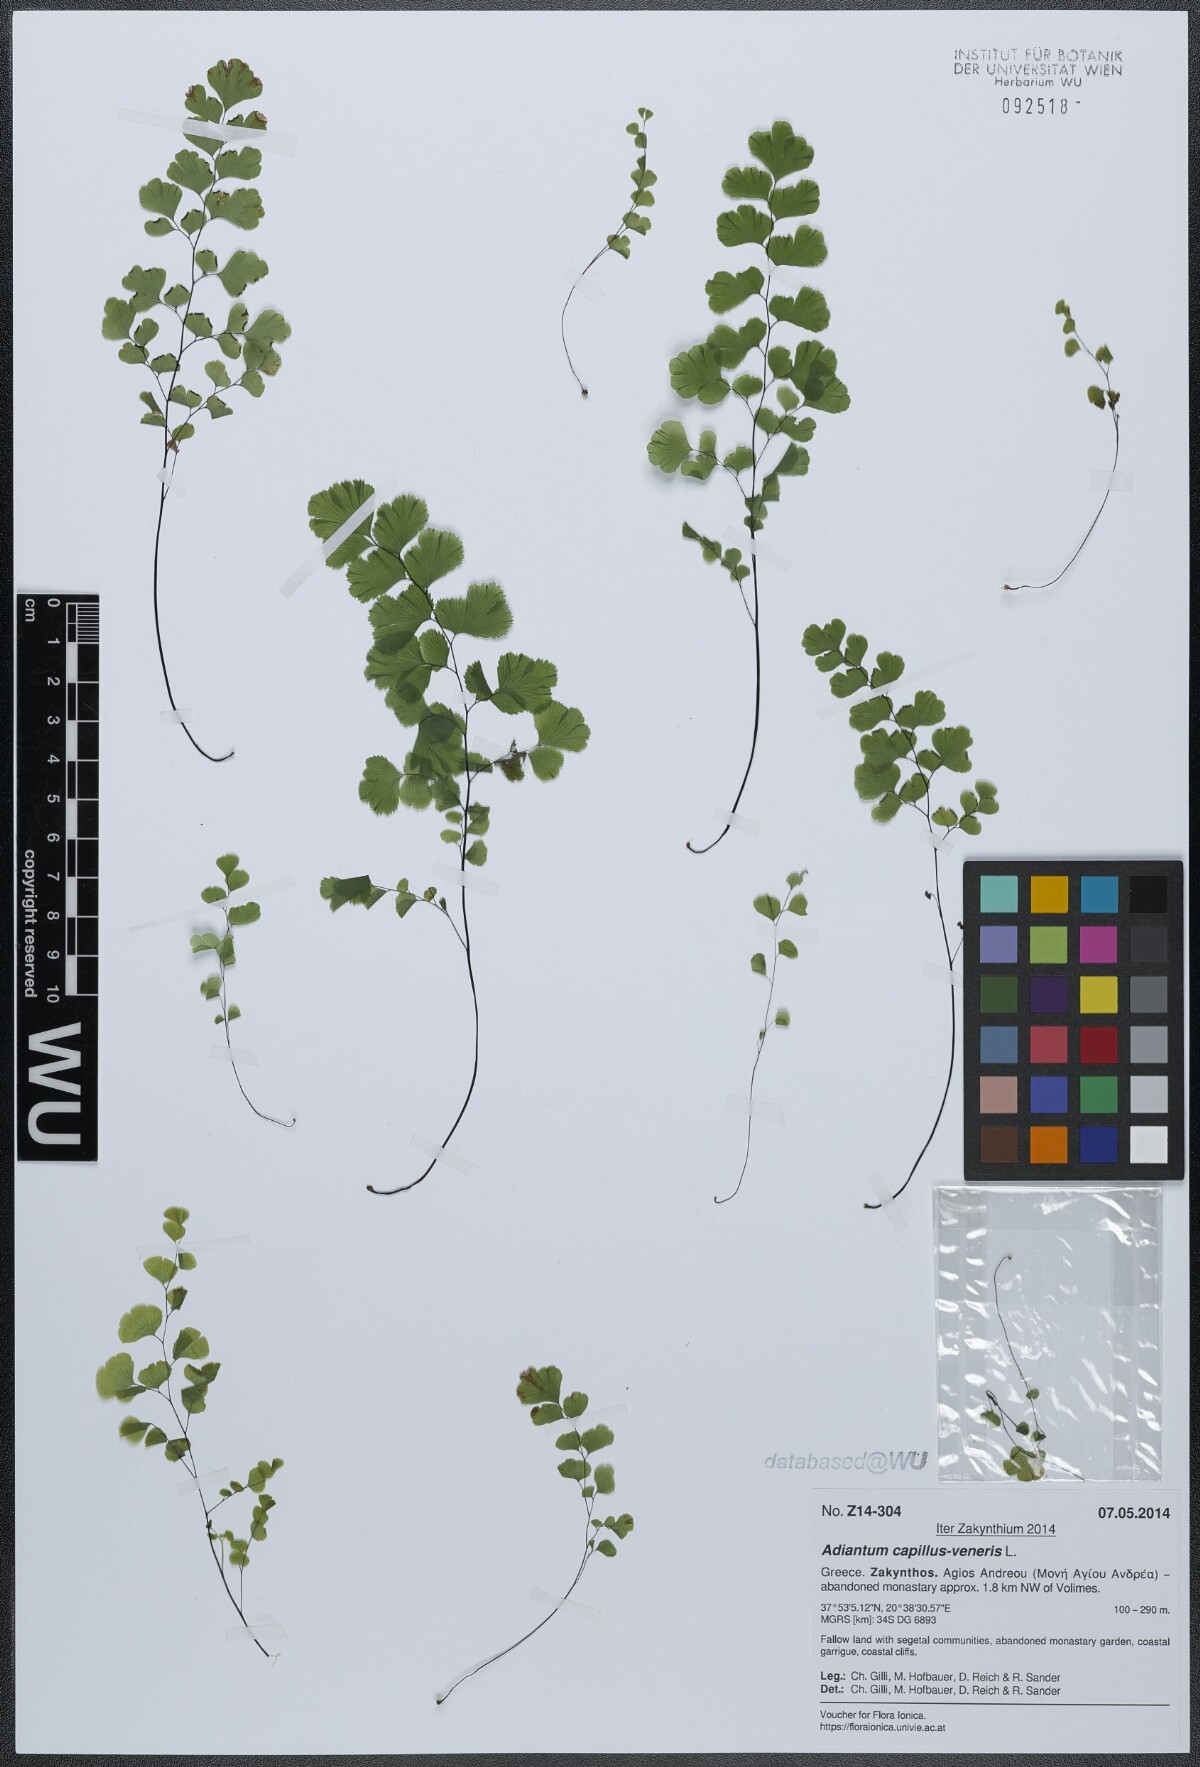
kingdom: Plantae
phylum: Tracheophyta
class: Polypodiopsida
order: Polypodiales
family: Pteridaceae
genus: Adiantum
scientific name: Adiantum capillus-veneris
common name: Maidenhair fern
